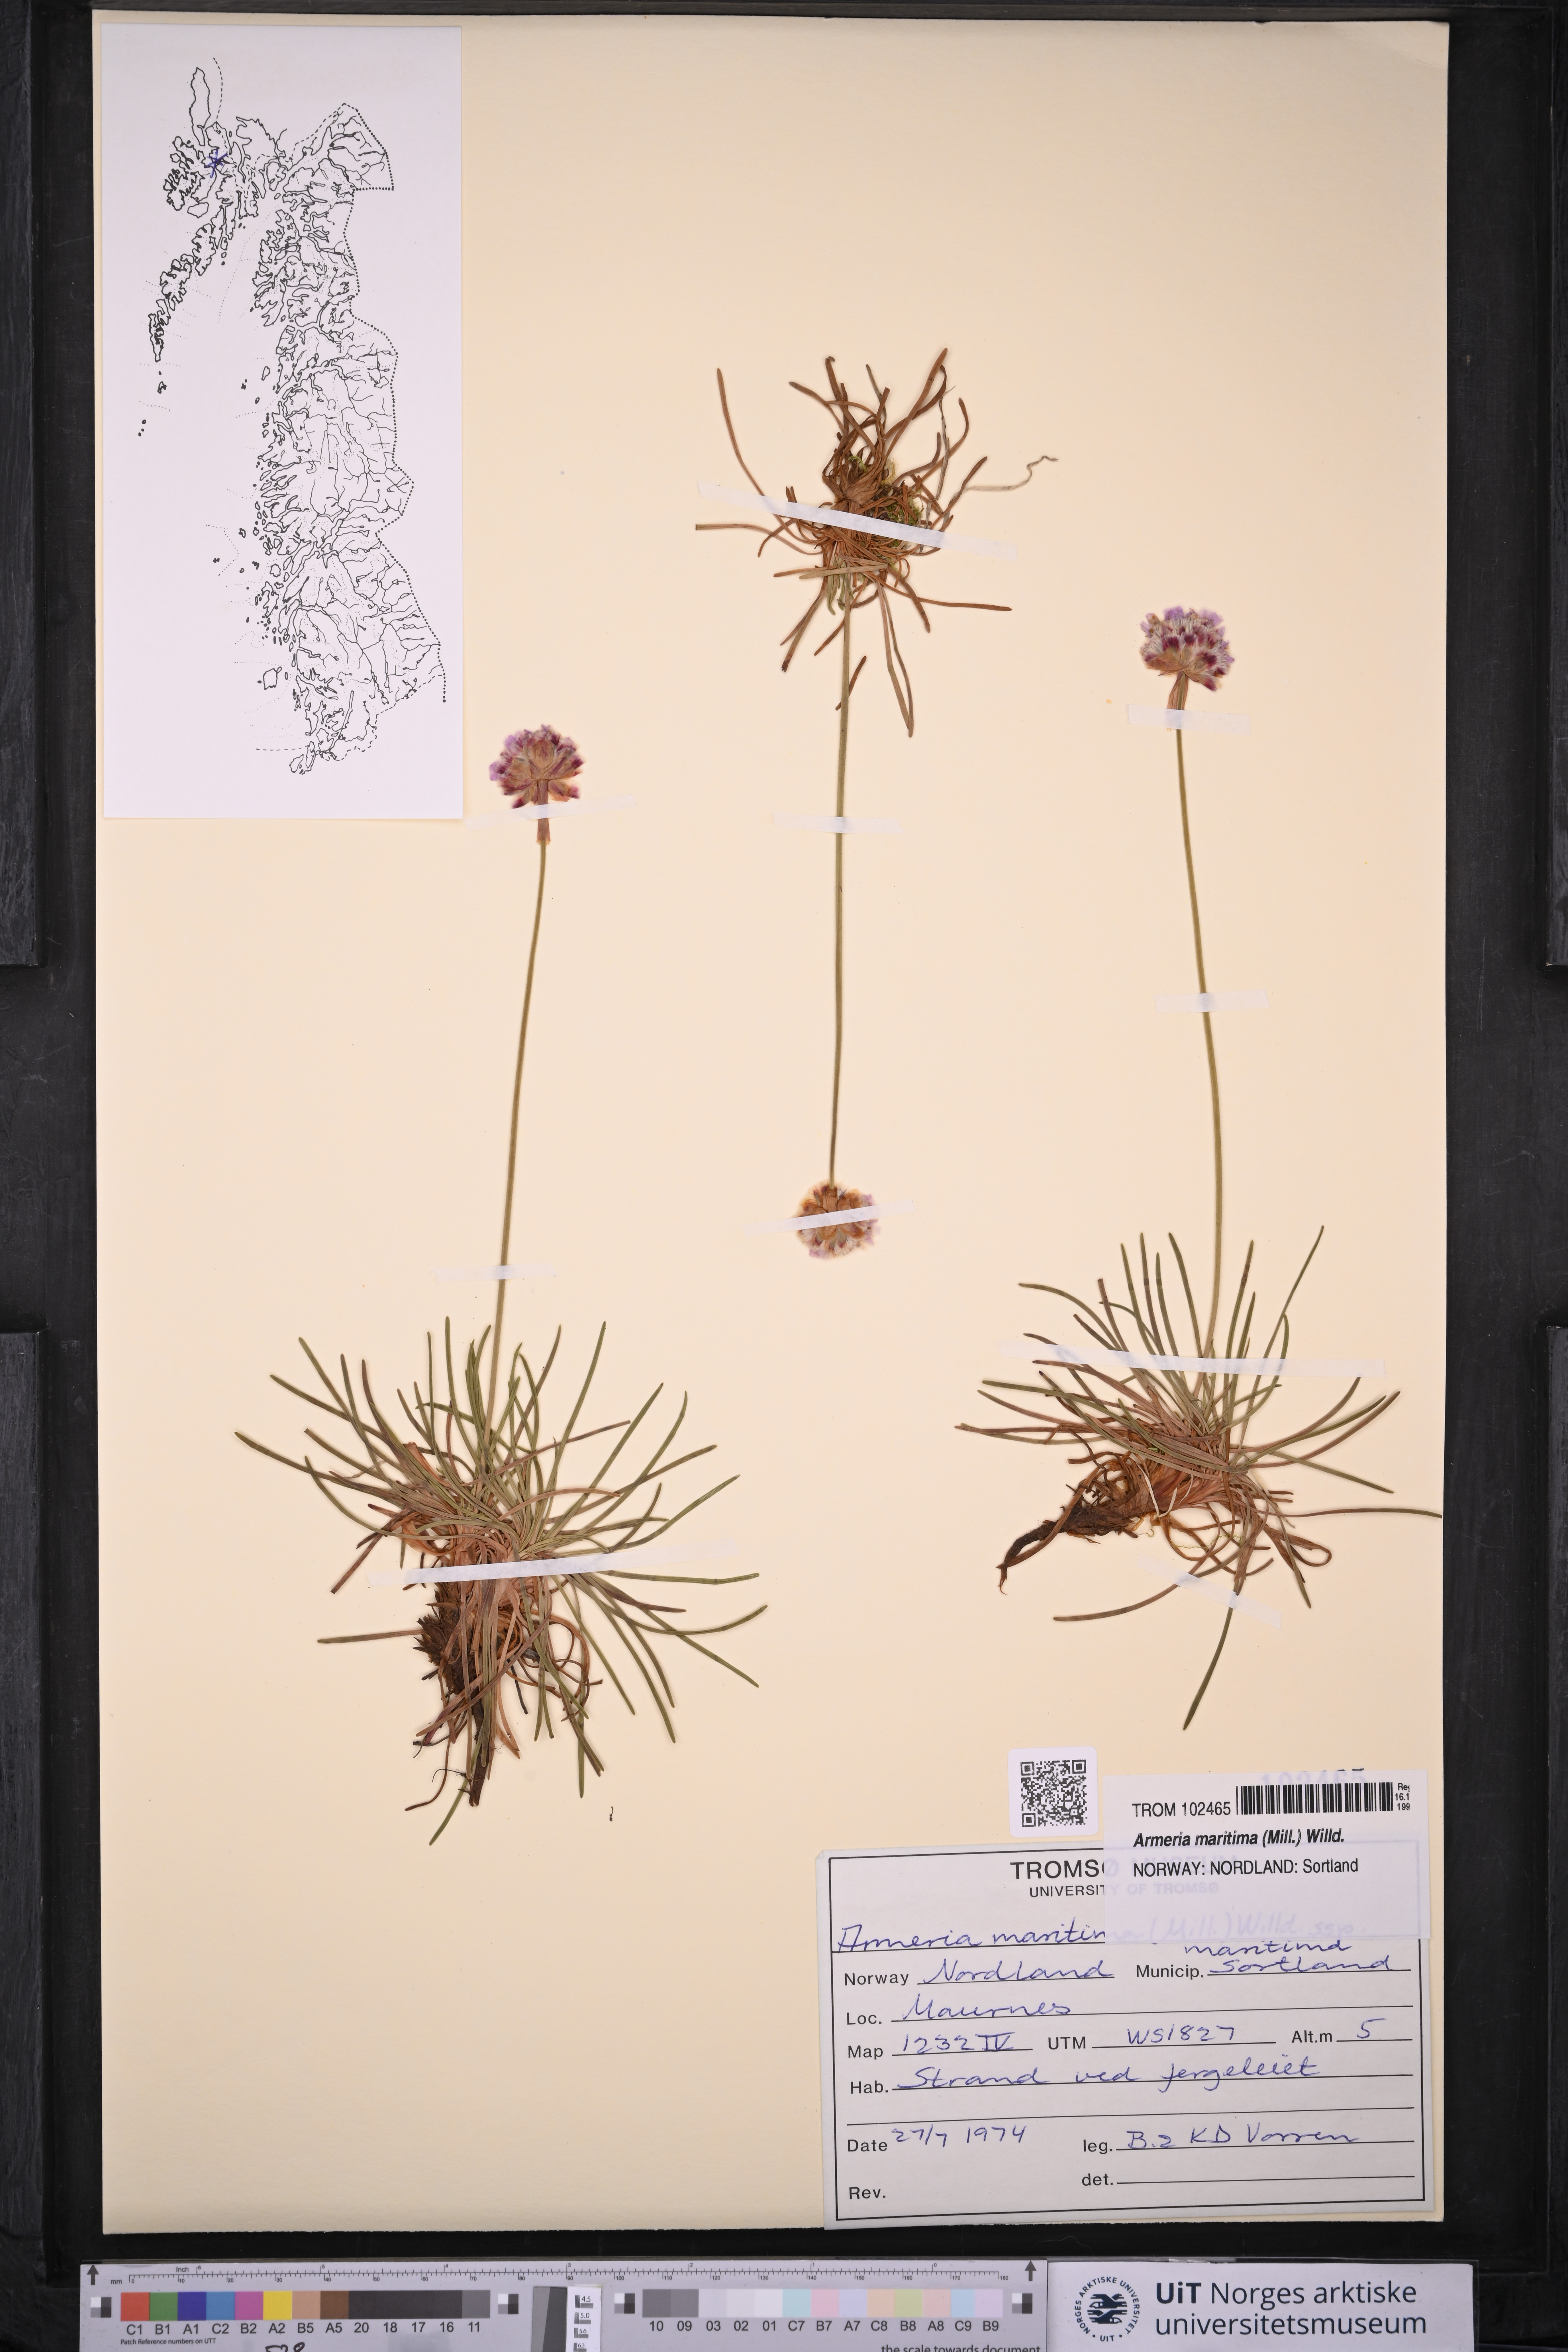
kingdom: Plantae
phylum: Tracheophyta
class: Magnoliopsida
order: Caryophyllales
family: Plumbaginaceae
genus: Armeria
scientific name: Armeria maritima
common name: Thrift
